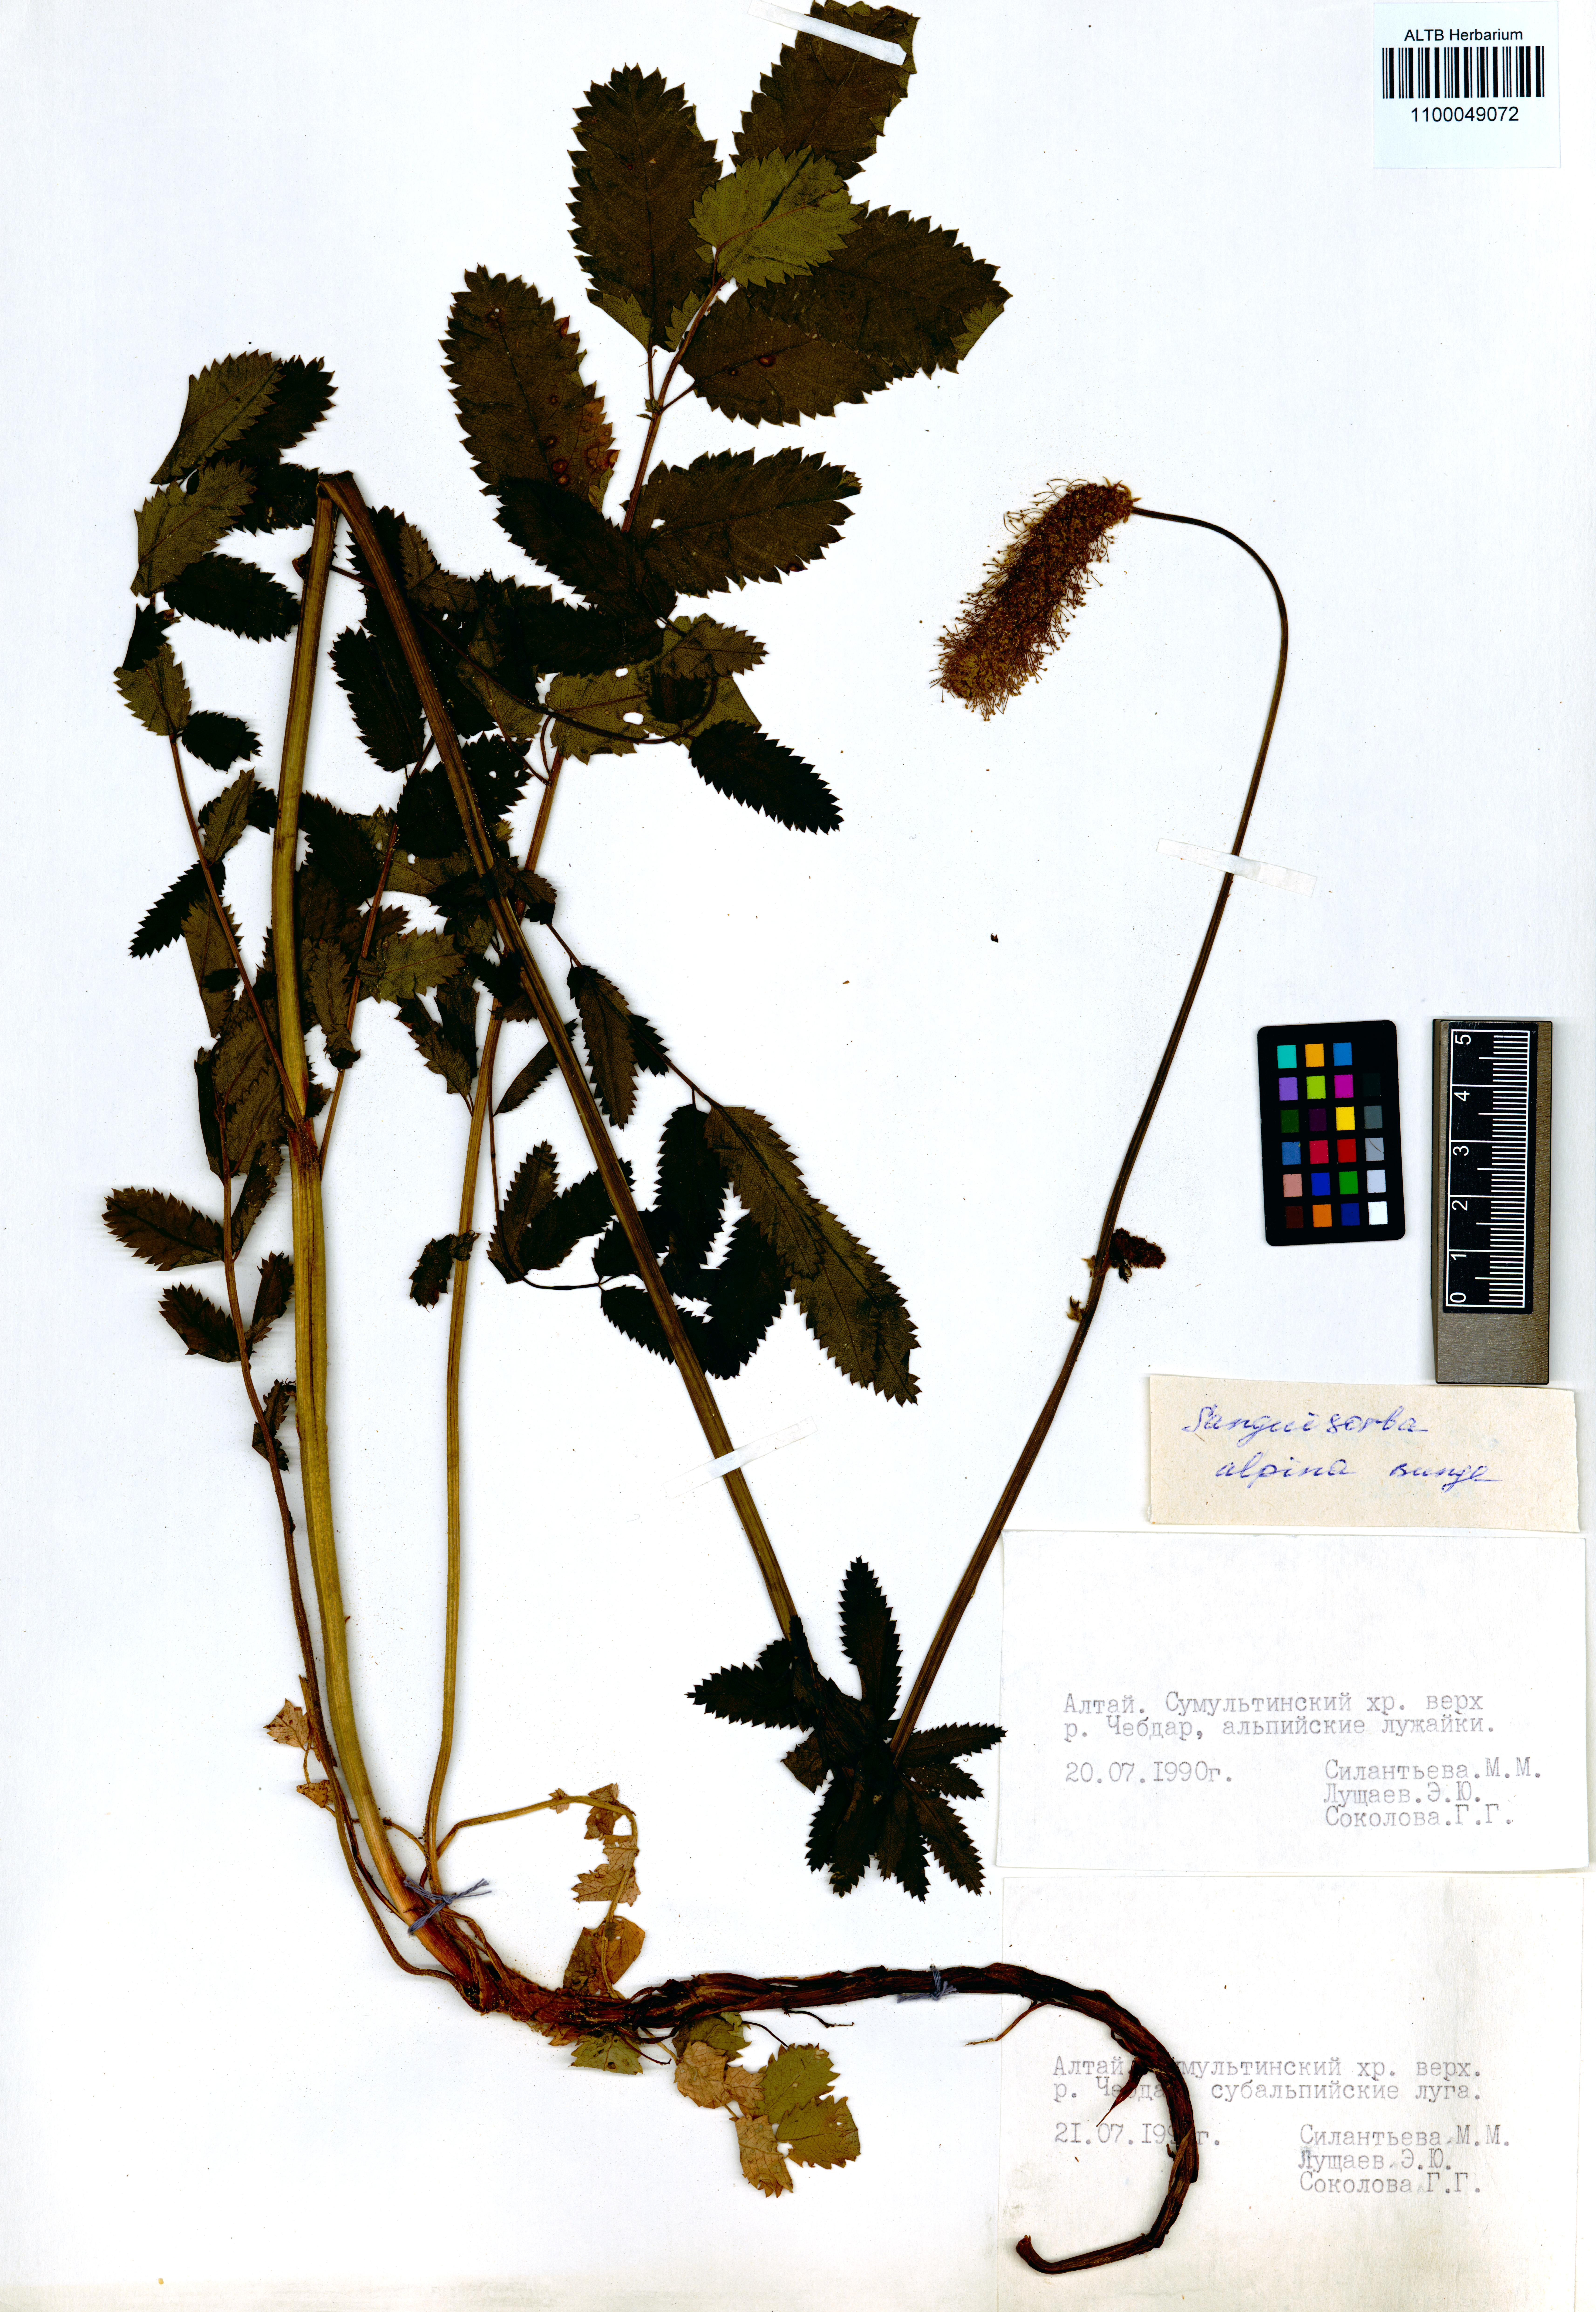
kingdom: Plantae
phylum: Tracheophyta
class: Magnoliopsida
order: Rosales
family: Rosaceae
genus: Sanguisorba
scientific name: Sanguisorba alpina
